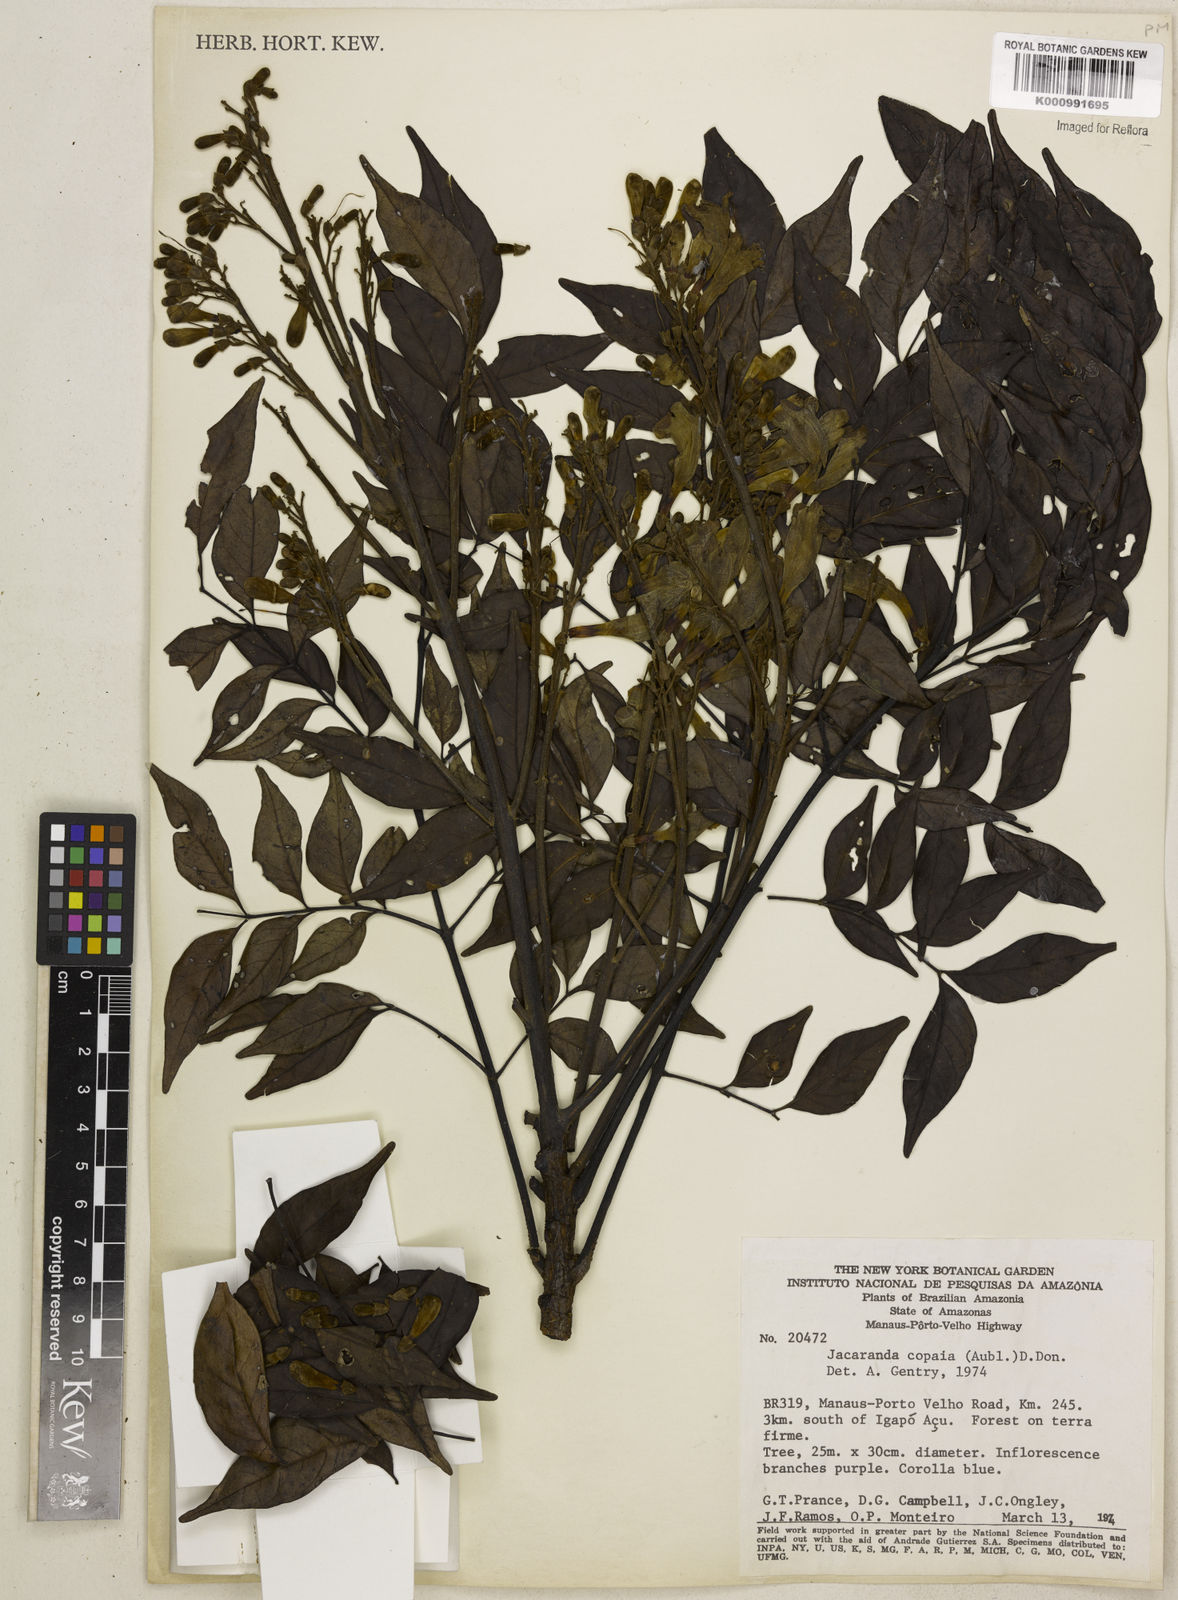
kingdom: Plantae
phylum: Tracheophyta
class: Magnoliopsida
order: Lamiales
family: Bignoniaceae
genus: Jacaranda
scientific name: Jacaranda copaia
